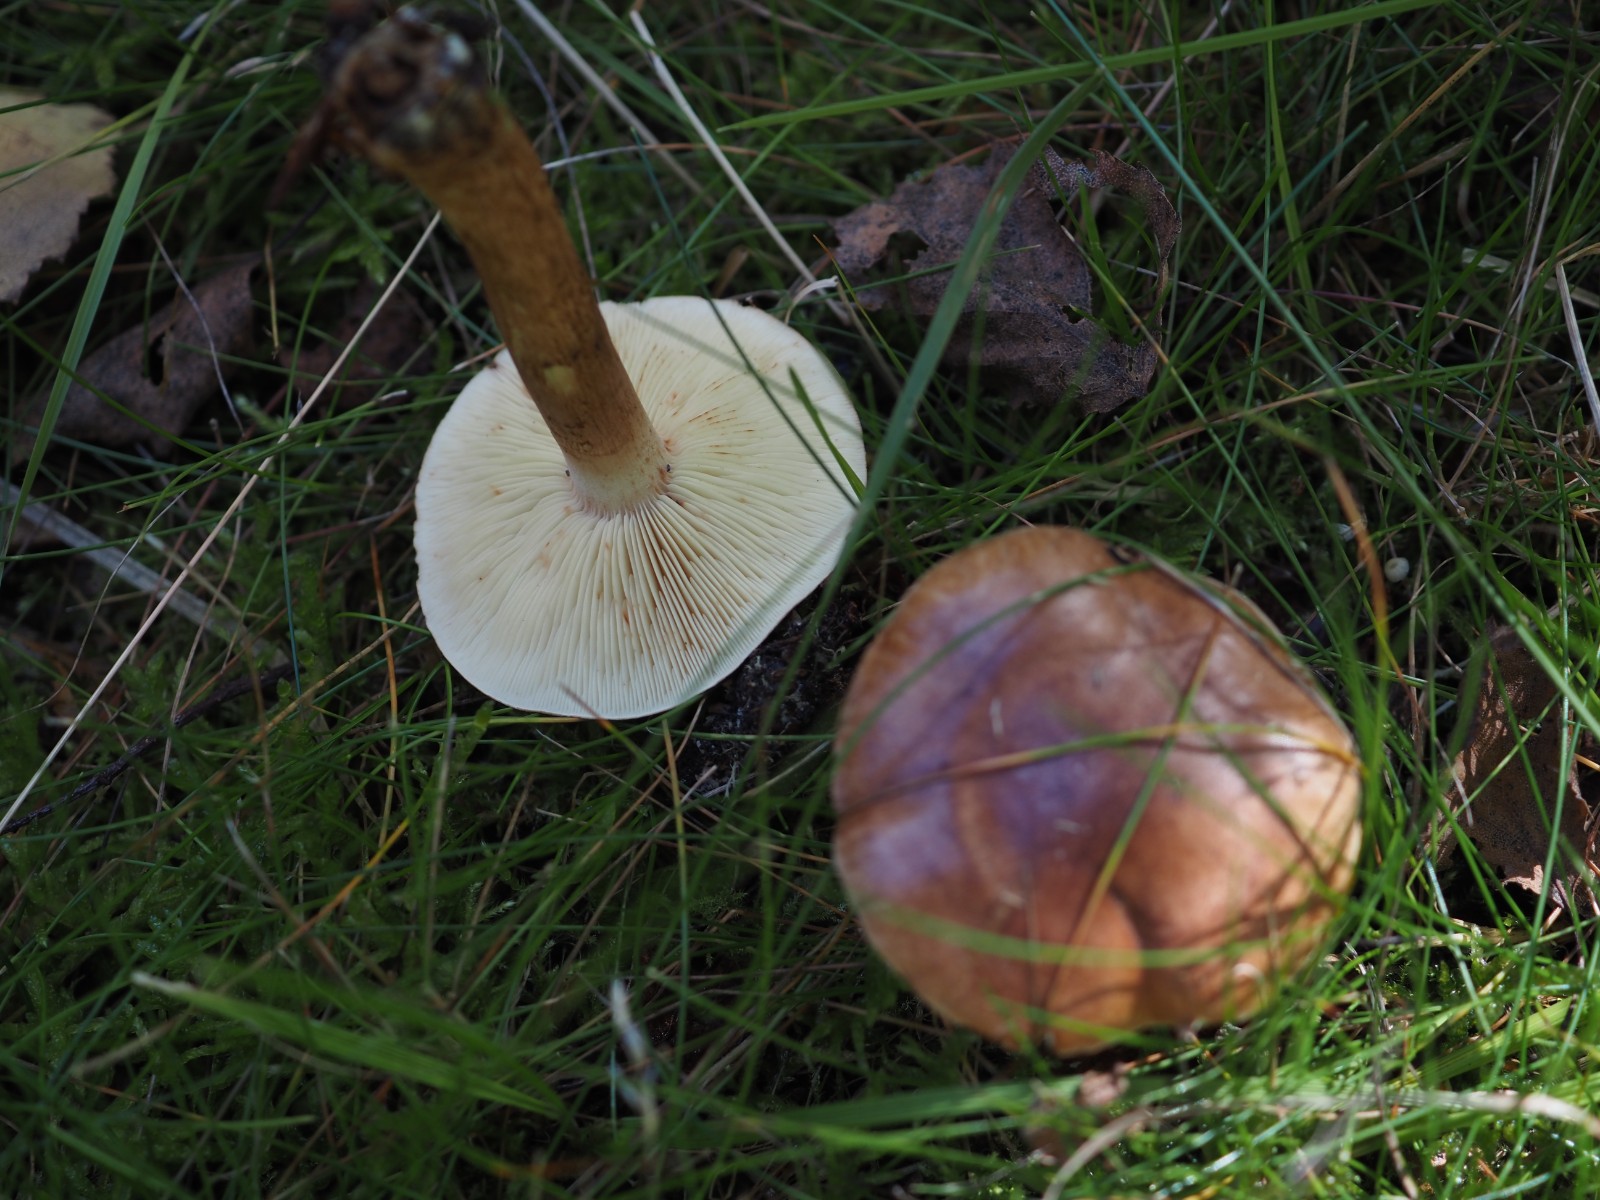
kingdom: Fungi
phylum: Basidiomycota
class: Agaricomycetes
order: Agaricales
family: Tricholomataceae
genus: Tricholoma
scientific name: Tricholoma fulvum
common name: birke-ridderhat
